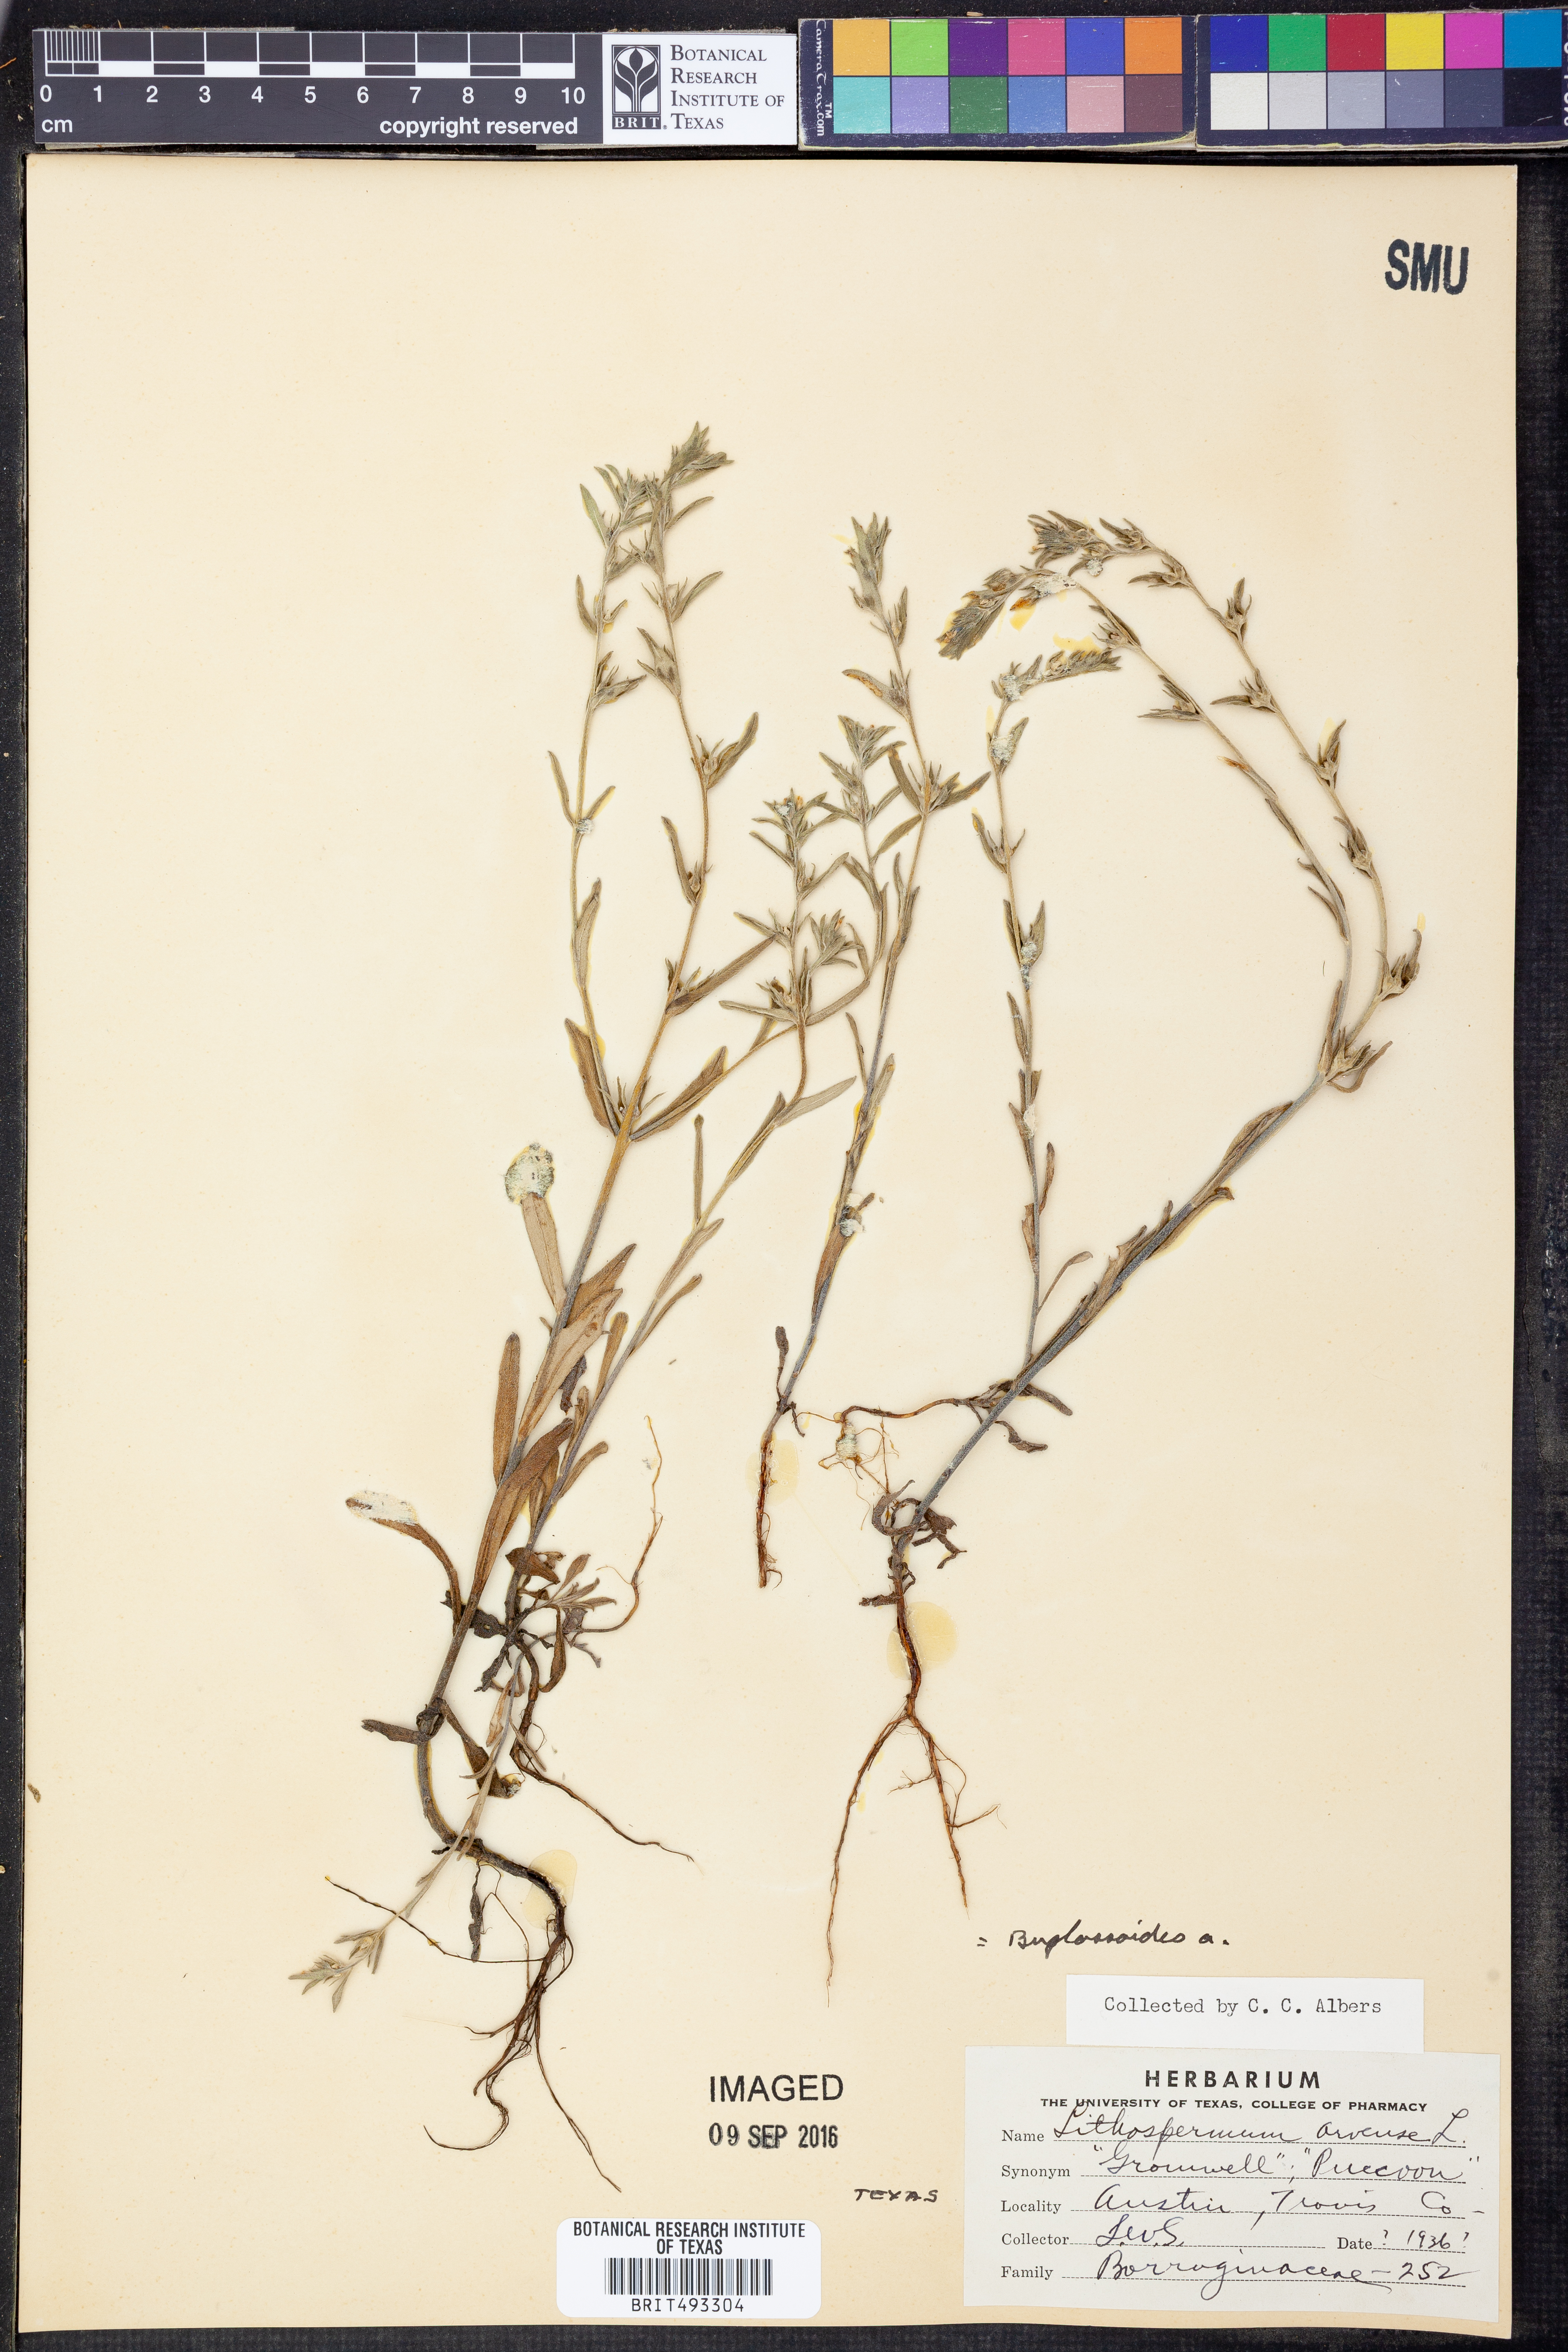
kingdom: Plantae
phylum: Tracheophyta
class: Magnoliopsida
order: Boraginales
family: Boraginaceae
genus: Buglossoides
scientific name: Buglossoides arvensis
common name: Corn gromwell
